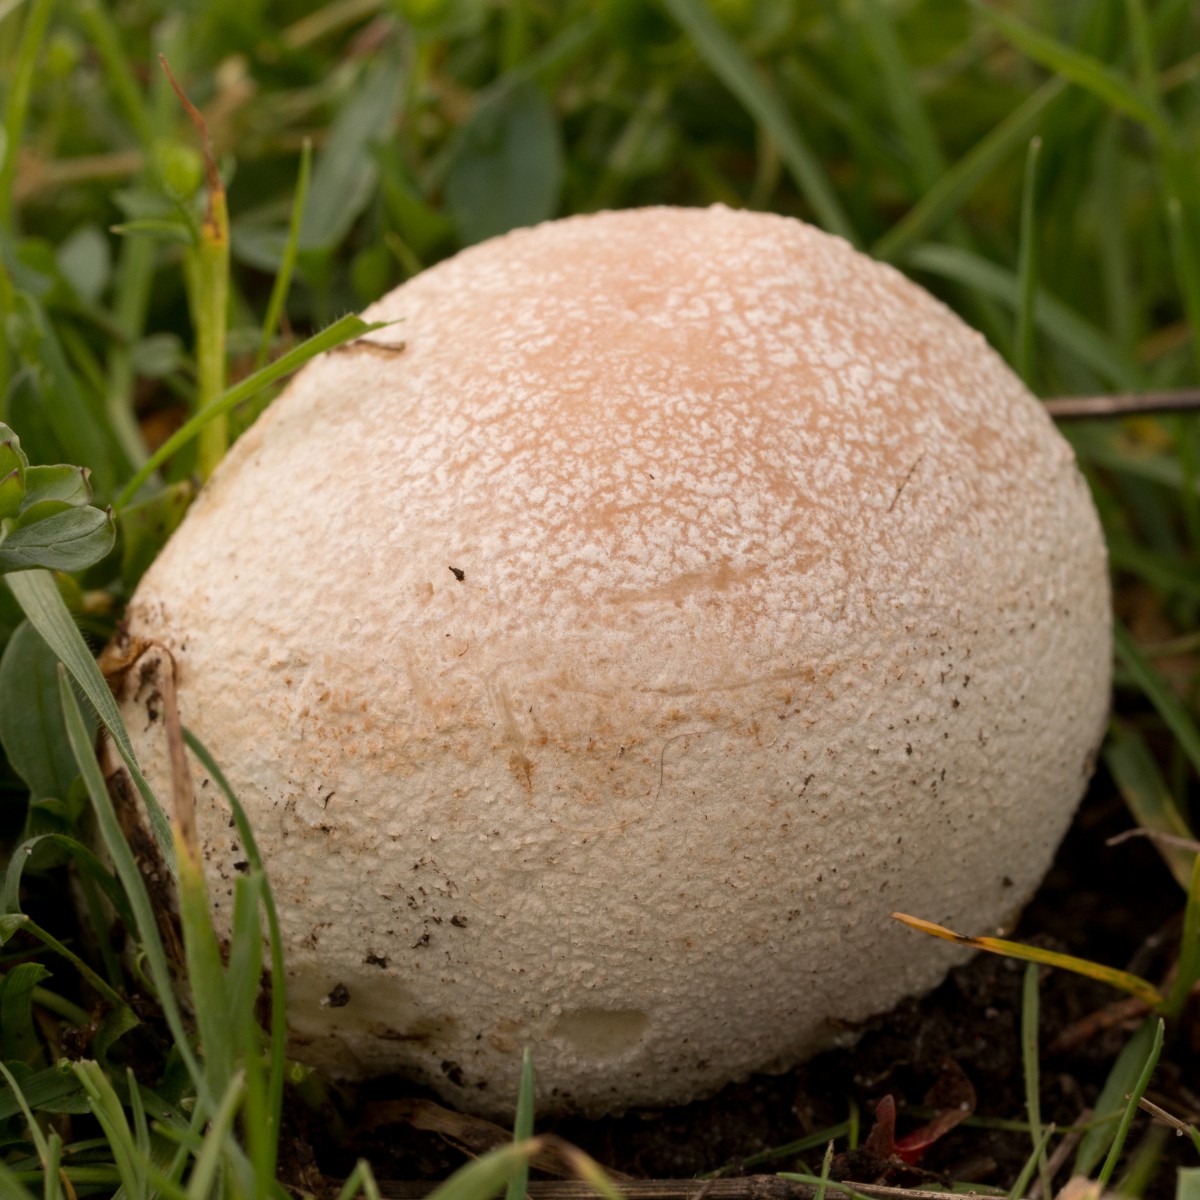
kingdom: Fungi
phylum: Basidiomycota
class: Agaricomycetes
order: Agaricales
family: Lycoperdaceae
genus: Bovistella
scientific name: Bovistella utriformis
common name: skællet støvbold
